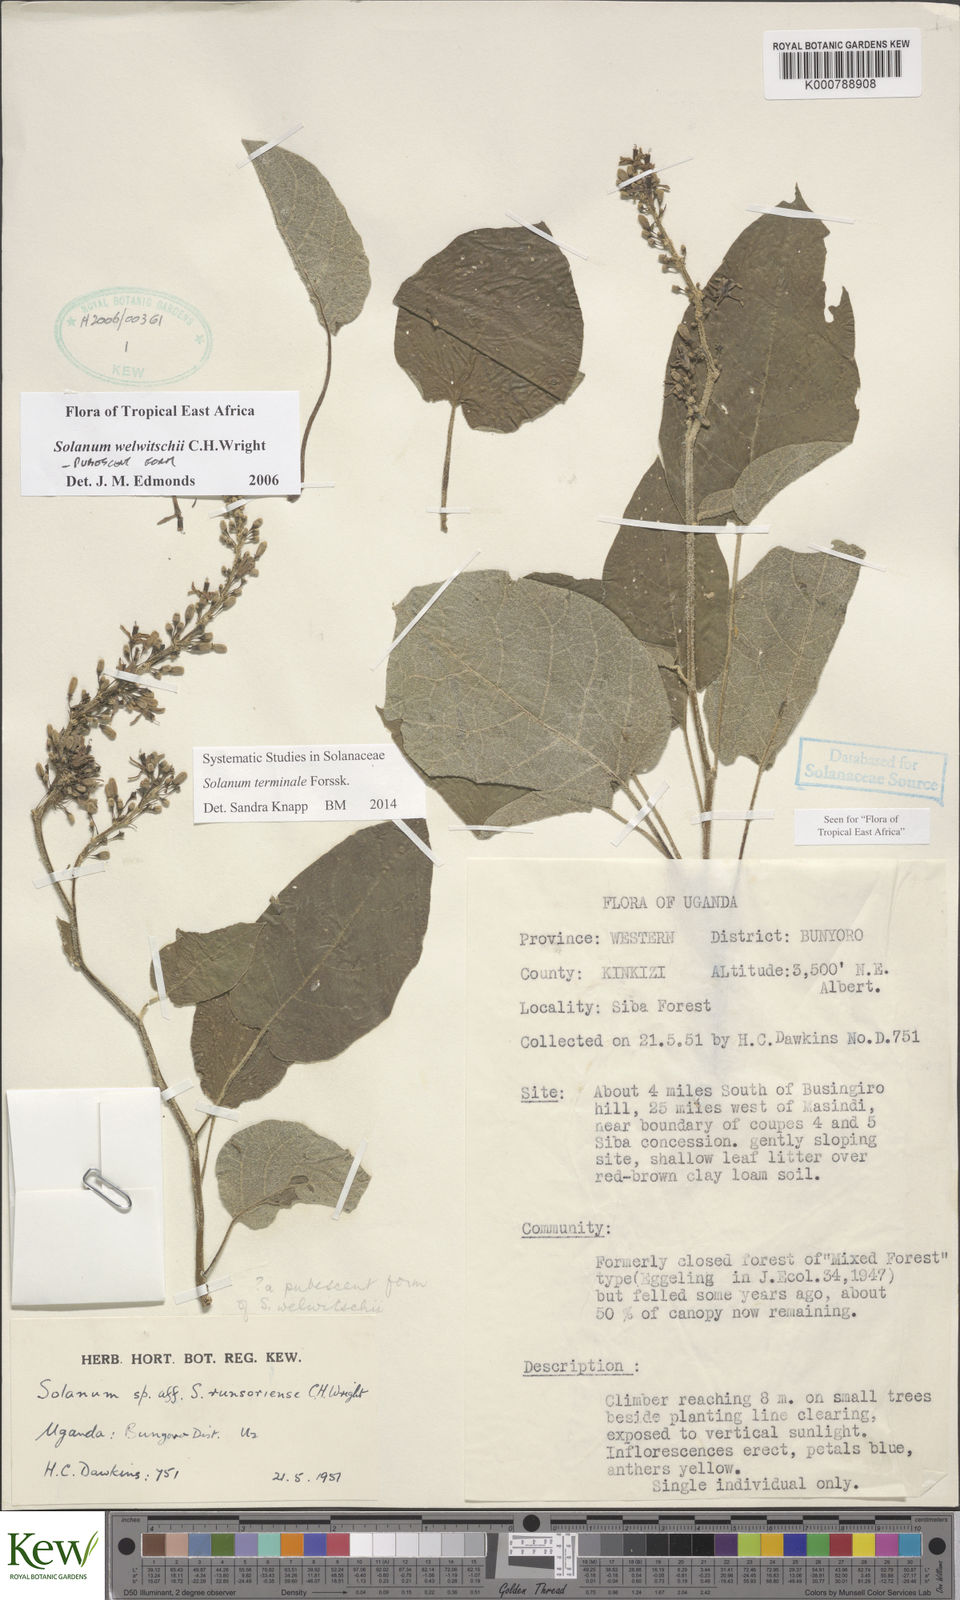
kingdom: Plantae
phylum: Tracheophyta
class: Magnoliopsida
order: Solanales
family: Solanaceae
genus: Solanum
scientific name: Solanum terminale
